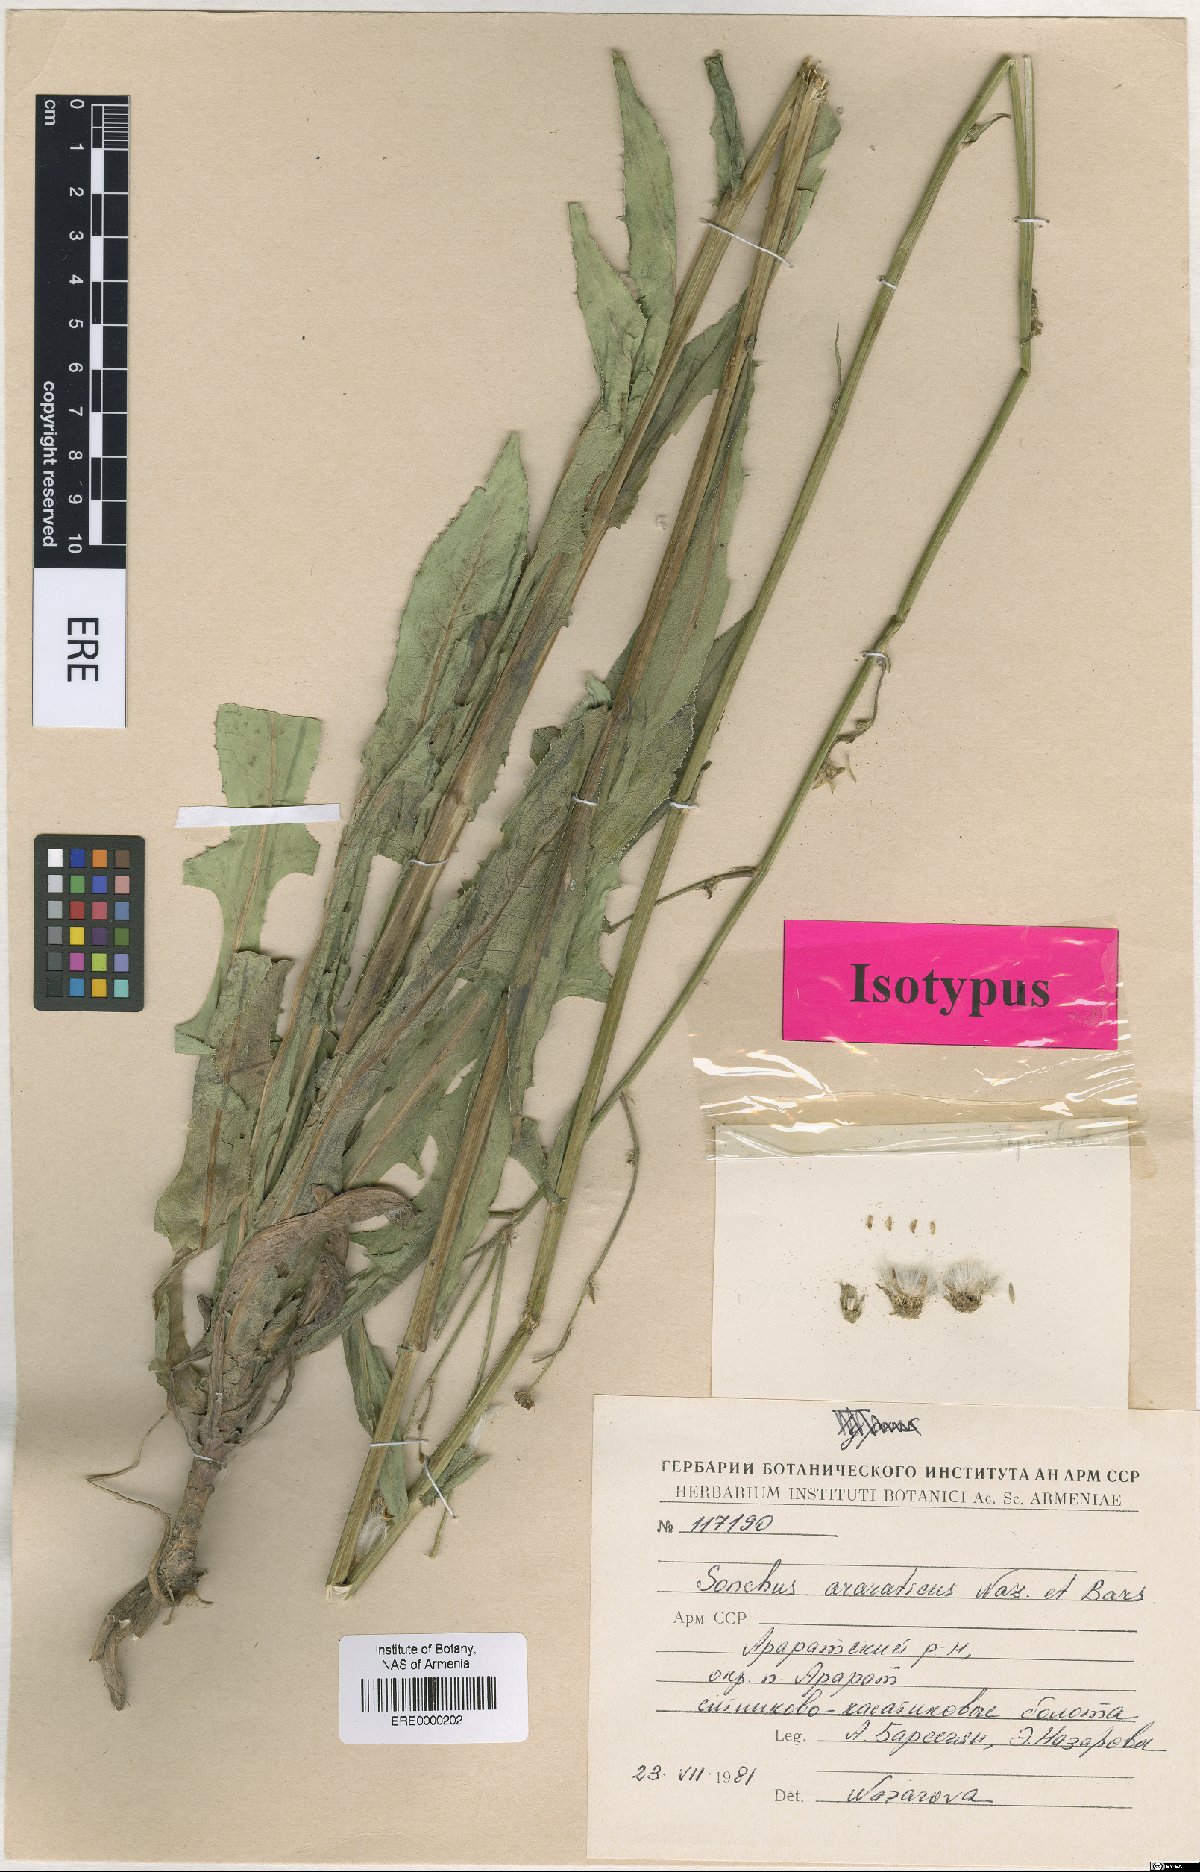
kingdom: Plantae
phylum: Tracheophyta
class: Magnoliopsida
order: Asterales
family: Asteraceae
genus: Sonchus
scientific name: Sonchus araraticus
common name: Araratian sow-thistle
